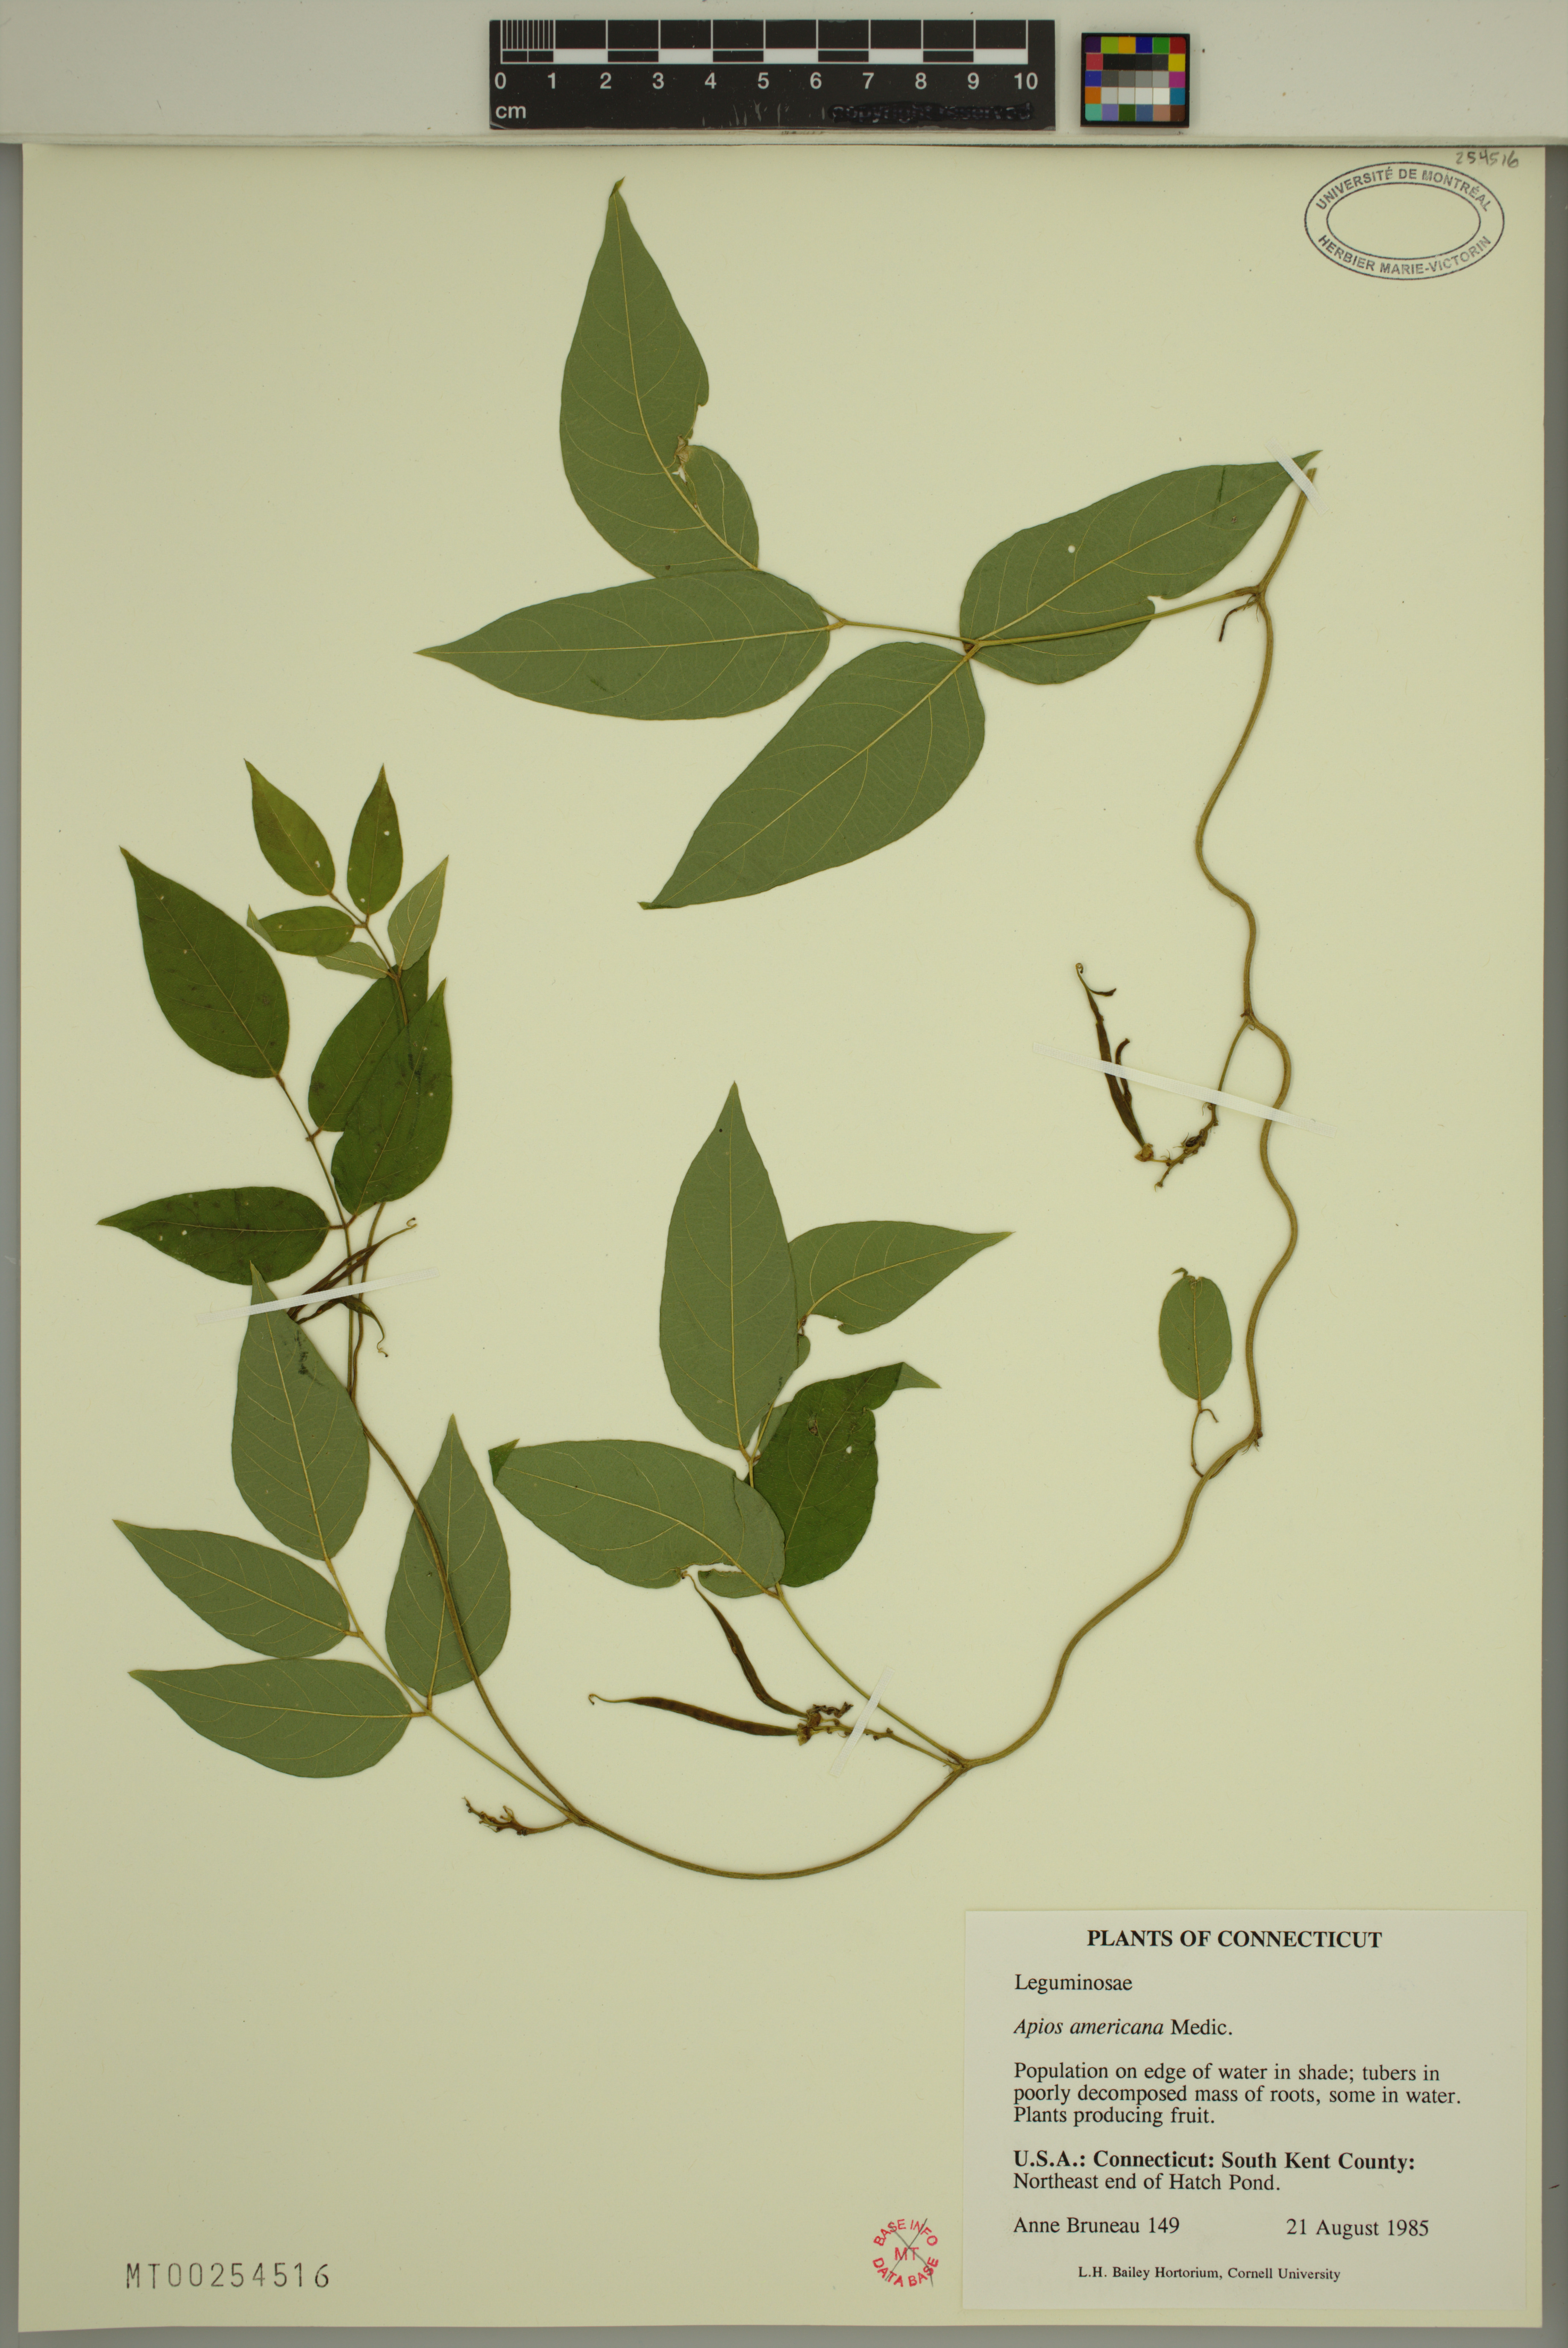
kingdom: Plantae
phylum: Tracheophyta
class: Magnoliopsida
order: Fabales
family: Fabaceae
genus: Apios
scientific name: Apios americana
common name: American potato-bean
